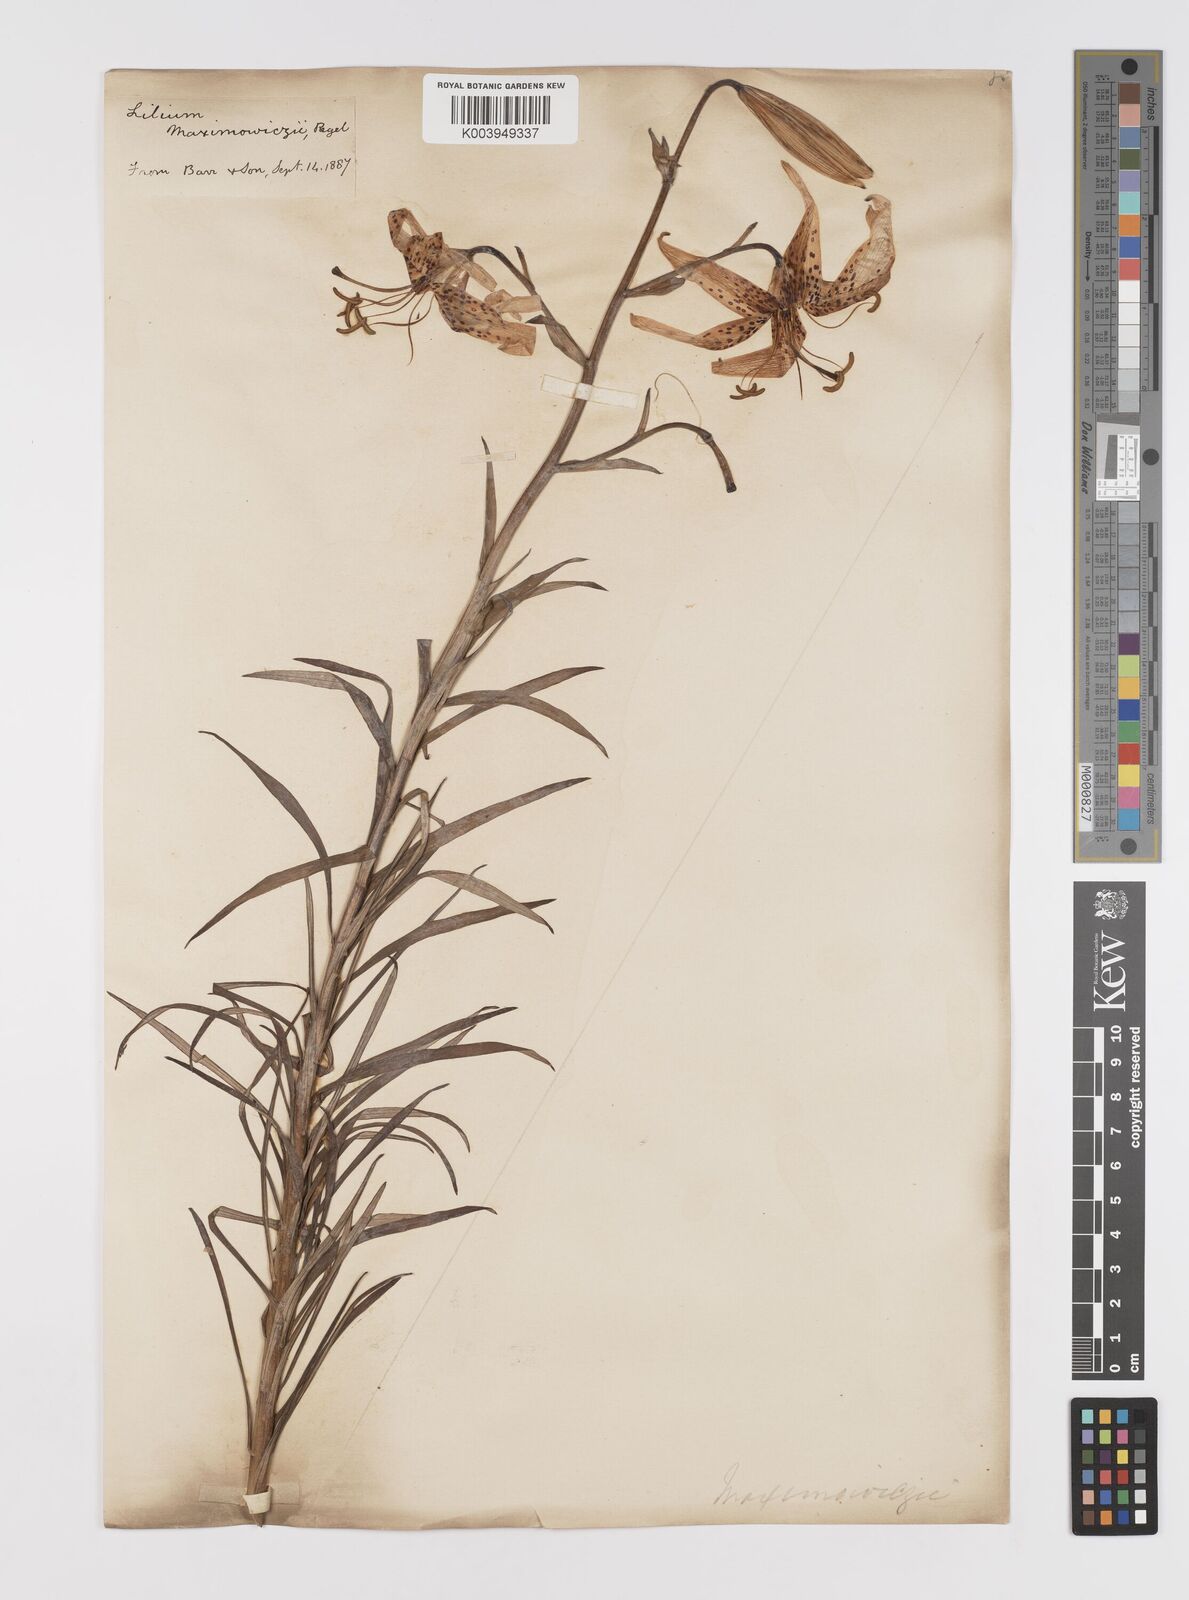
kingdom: Plantae
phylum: Tracheophyta
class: Liliopsida
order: Liliales
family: Liliaceae
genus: Lilium
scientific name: Lilium leichtlinii
